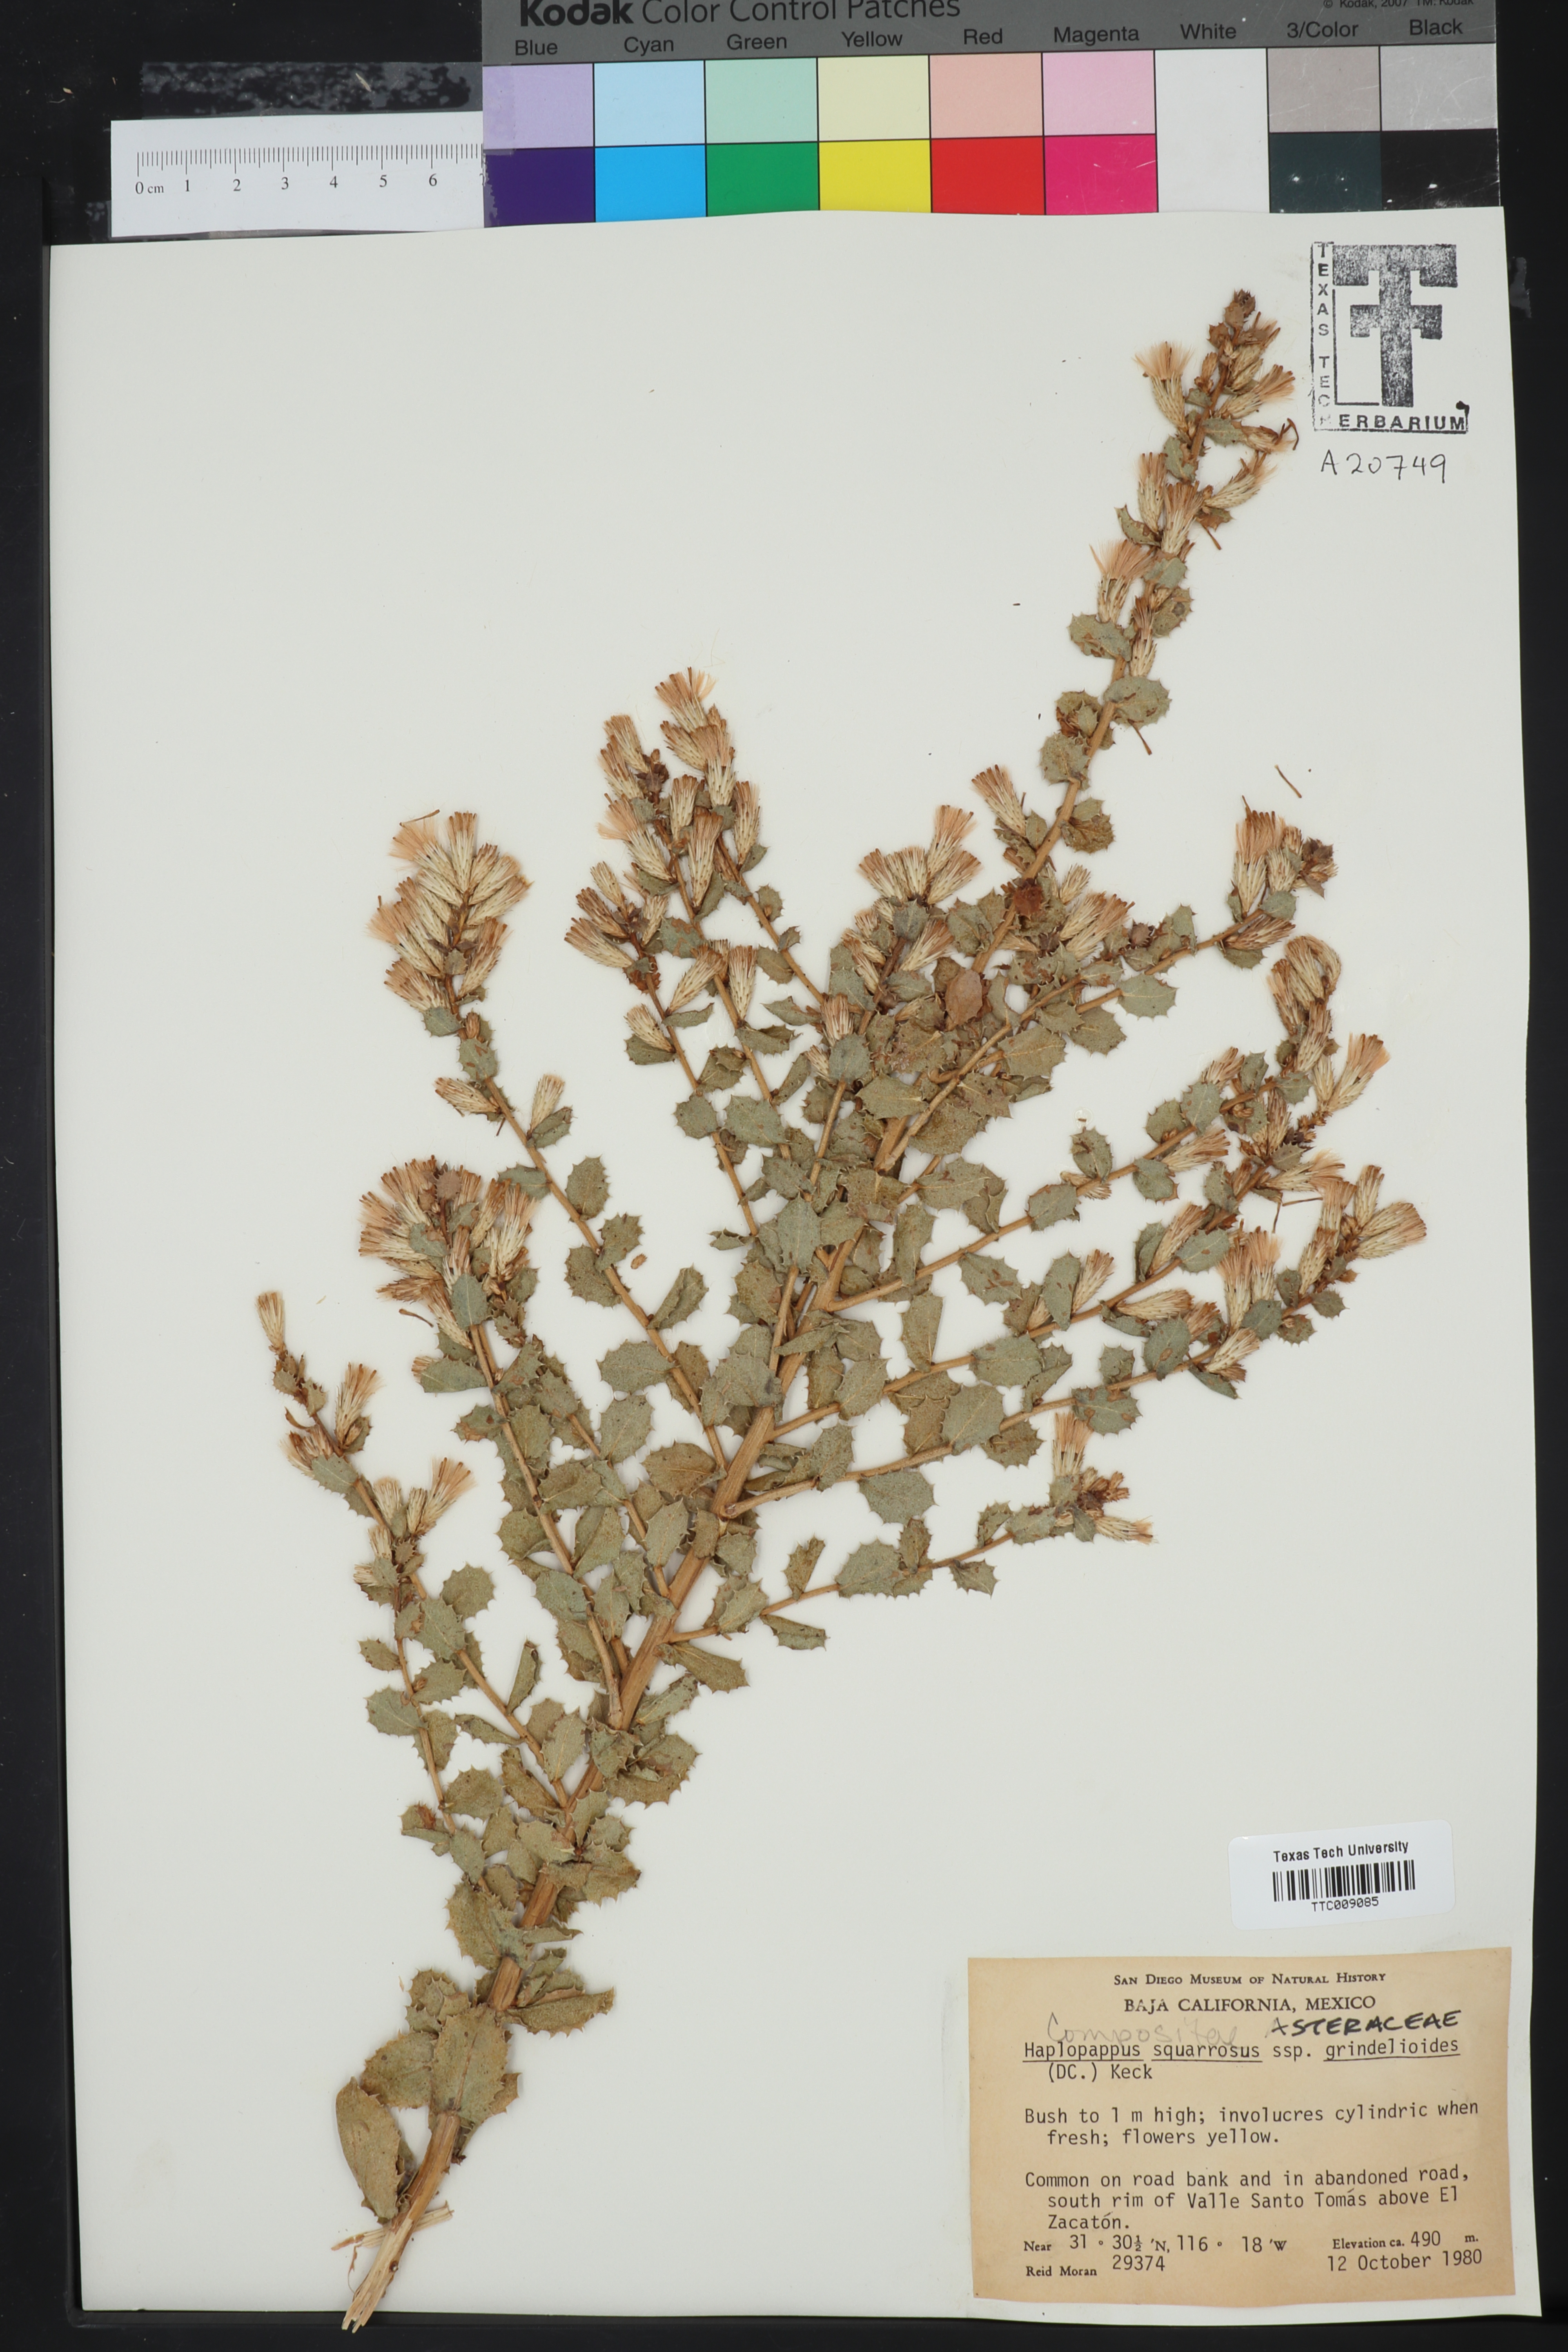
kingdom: Plantae
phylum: Tracheophyta
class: Magnoliopsida
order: Asterales
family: Asteraceae
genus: Hazardia
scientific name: Hazardia squarrosa
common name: Saw-tooth goldenbush
